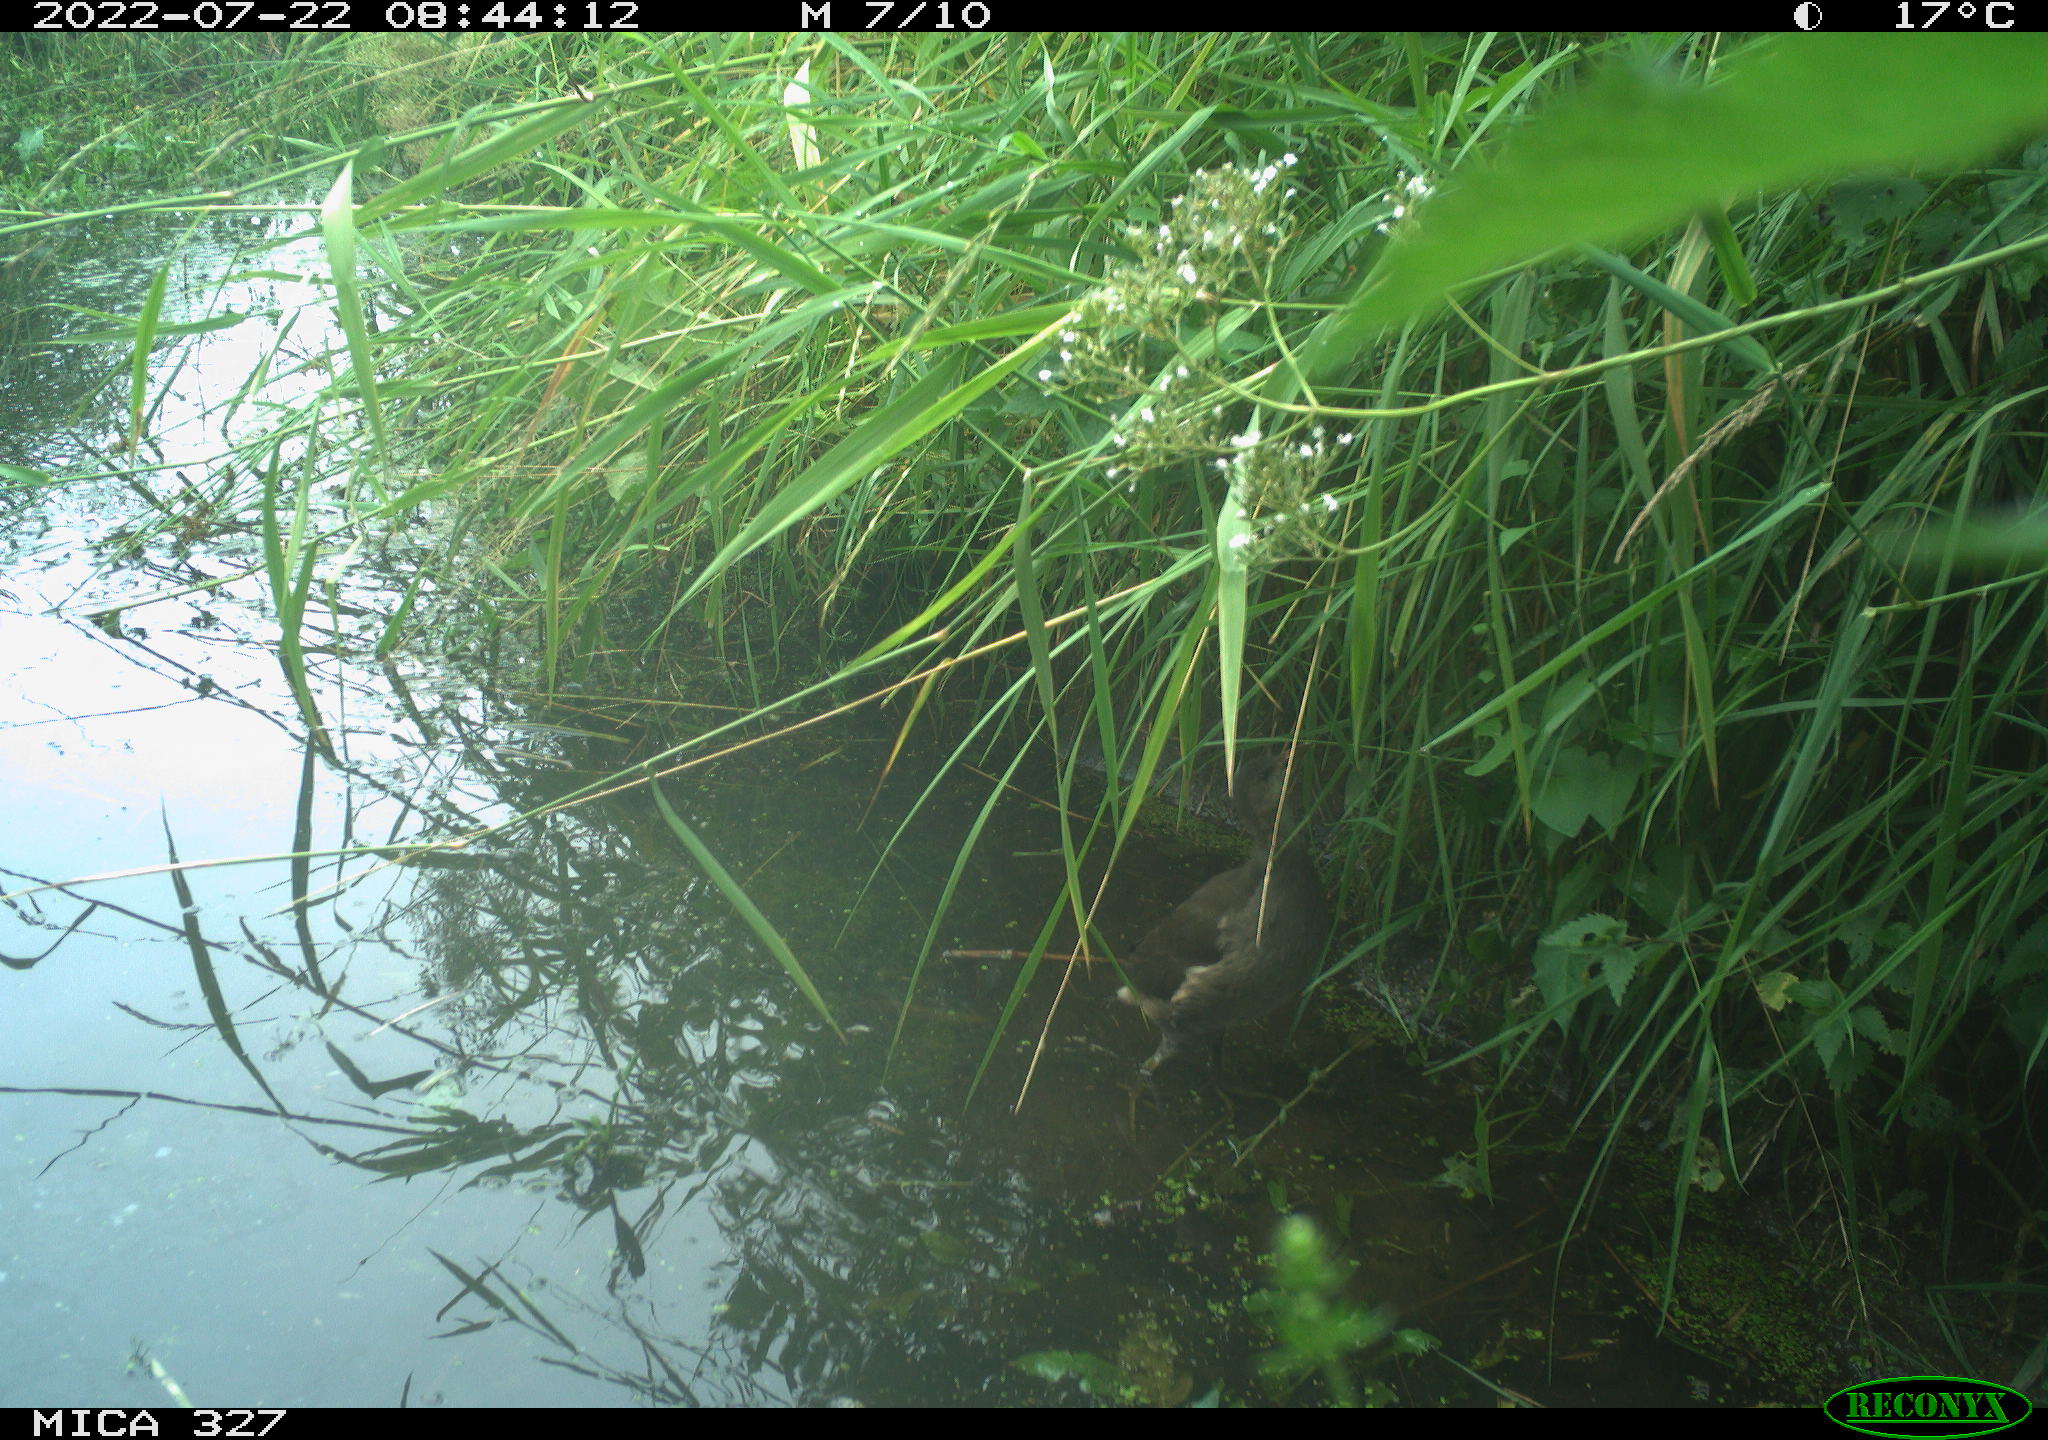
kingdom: Animalia
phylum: Chordata
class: Aves
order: Gruiformes
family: Rallidae
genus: Gallinula
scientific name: Gallinula chloropus
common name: Common moorhen
